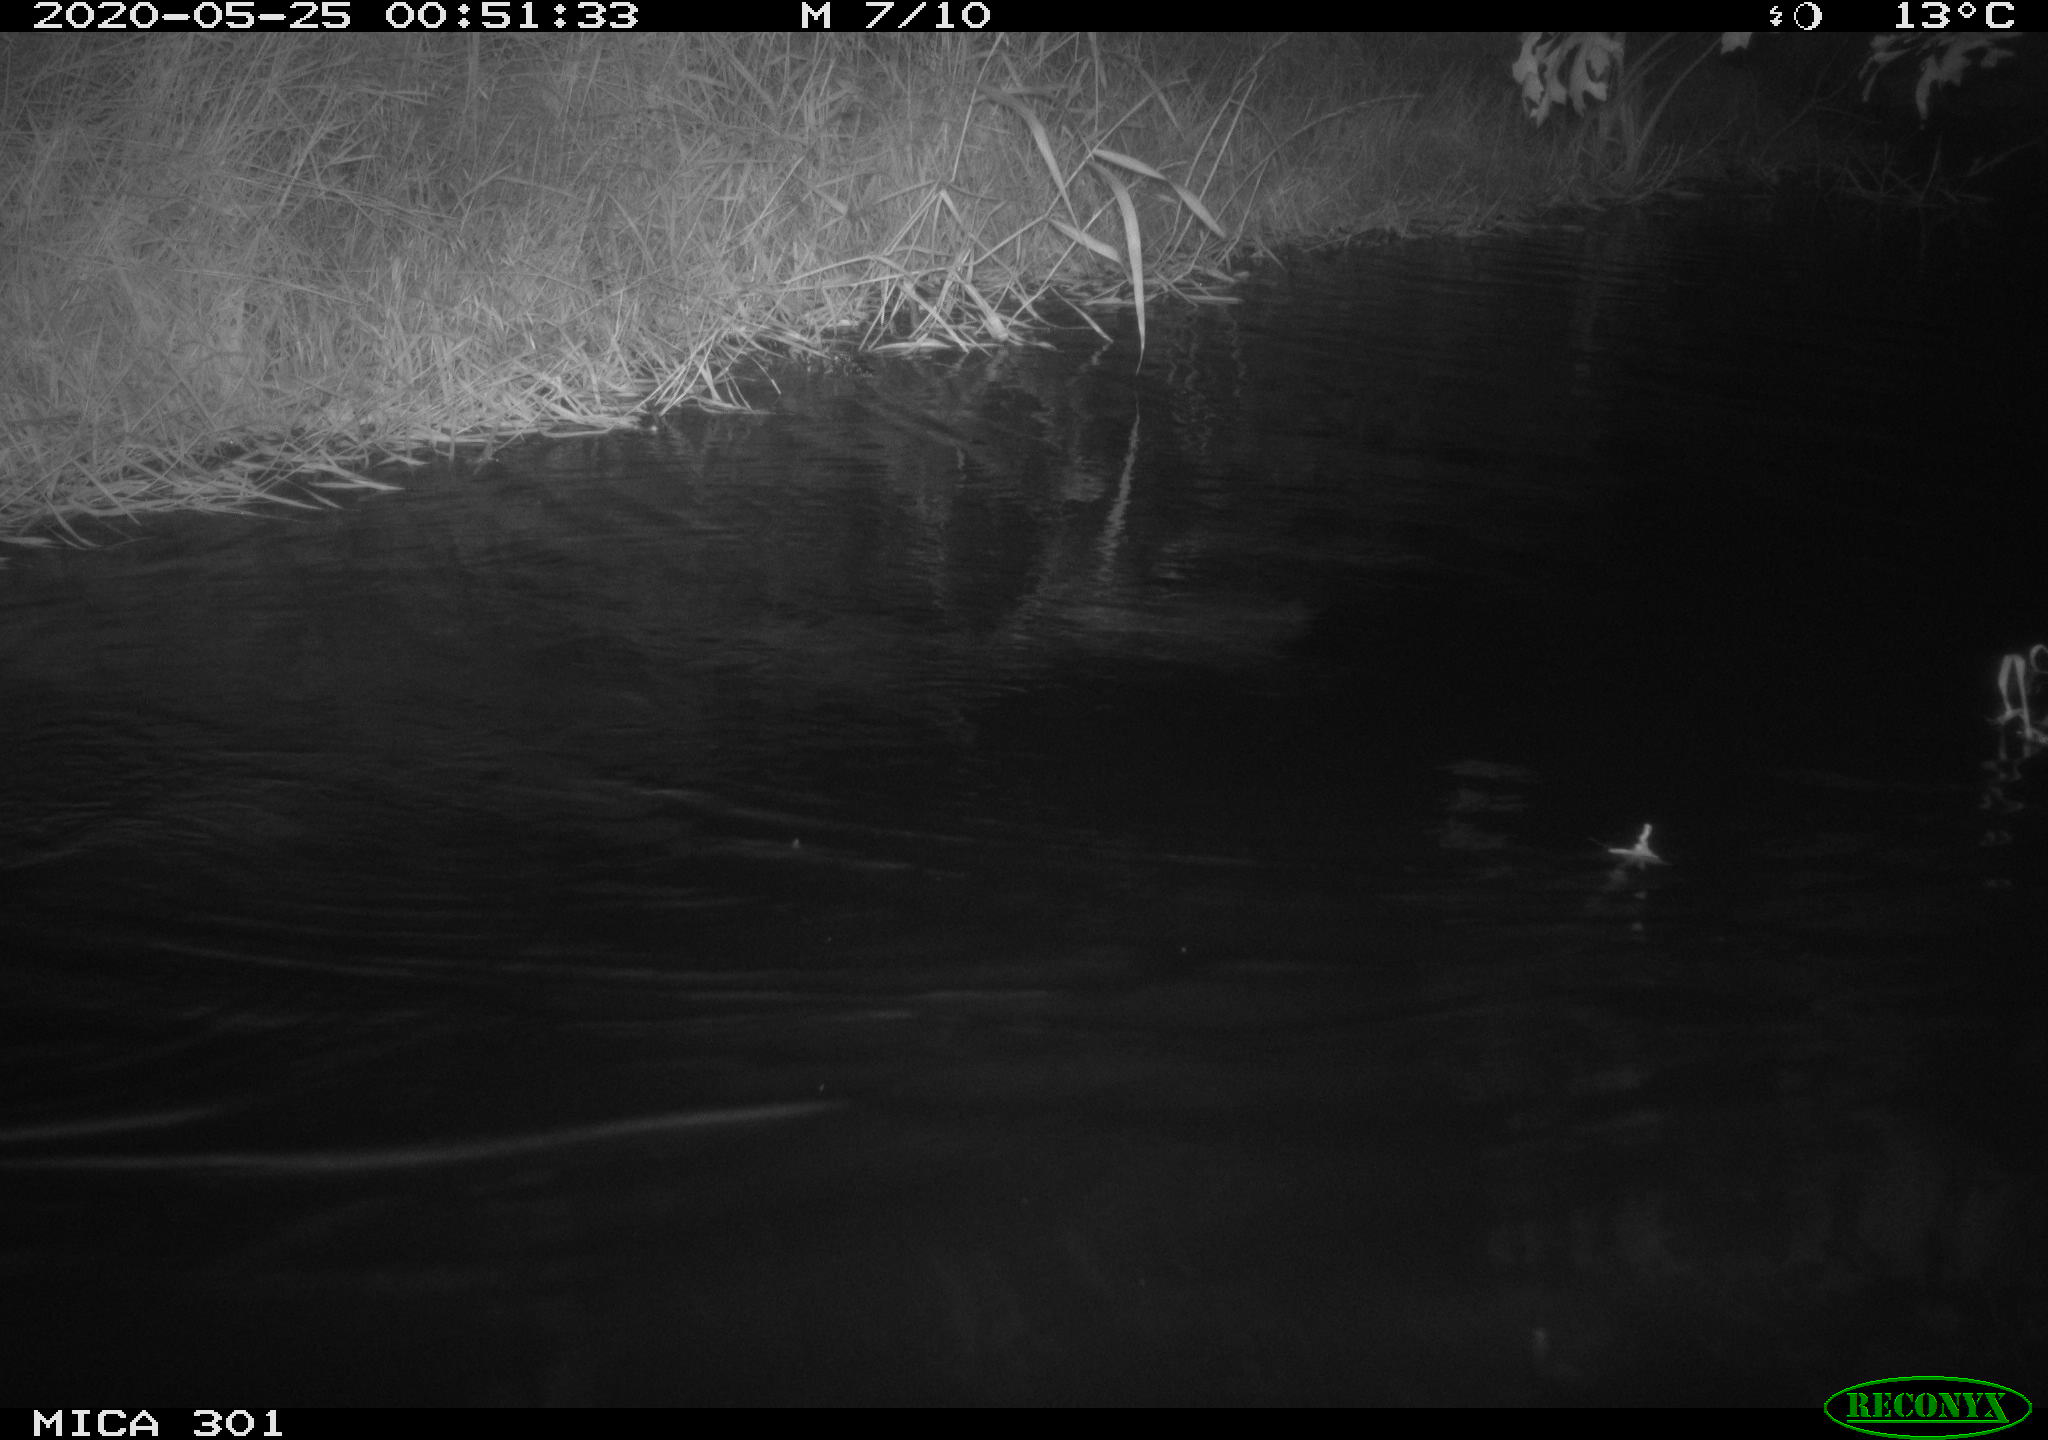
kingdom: Animalia
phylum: Chordata
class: Mammalia
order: Rodentia
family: Castoridae
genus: Castor
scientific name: Castor fiber
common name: Eurasian beaver
